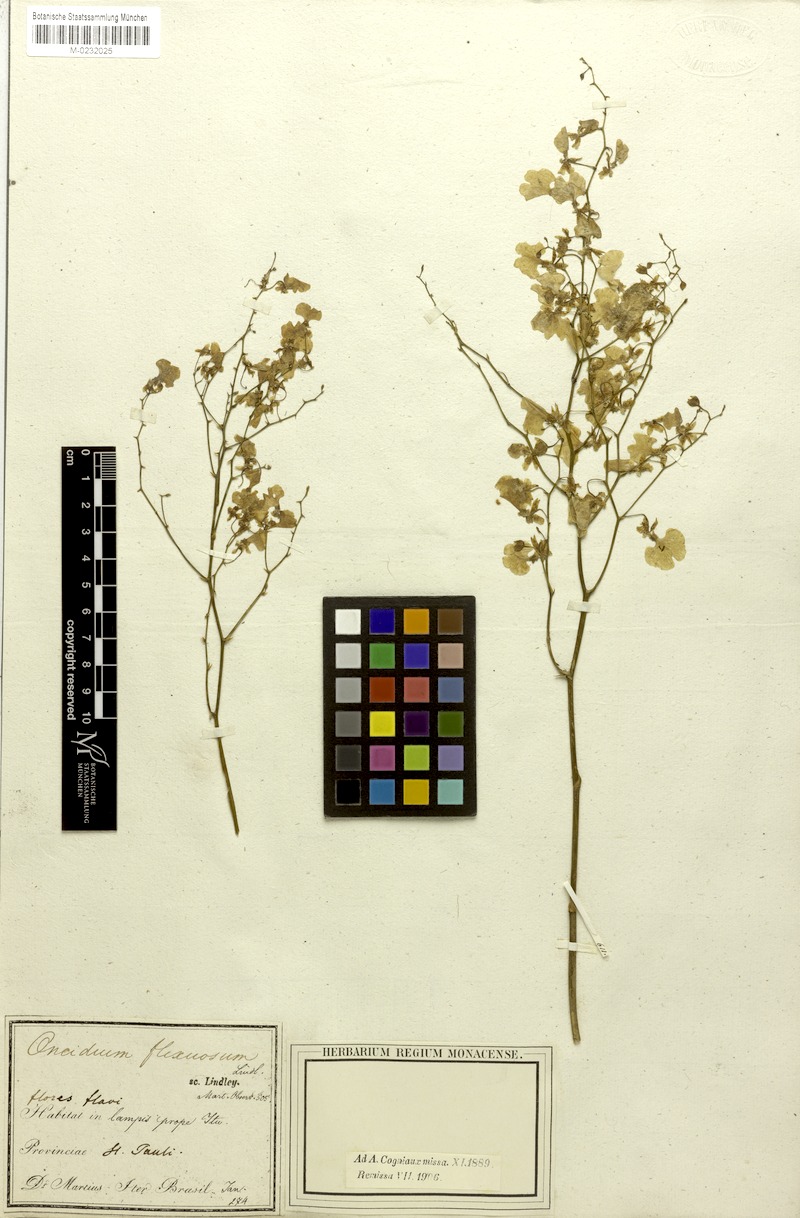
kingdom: Plantae
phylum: Tracheophyta
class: Liliopsida
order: Asparagales
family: Orchidaceae
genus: Cyrtochilum
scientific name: Cyrtochilum cimiciferum
